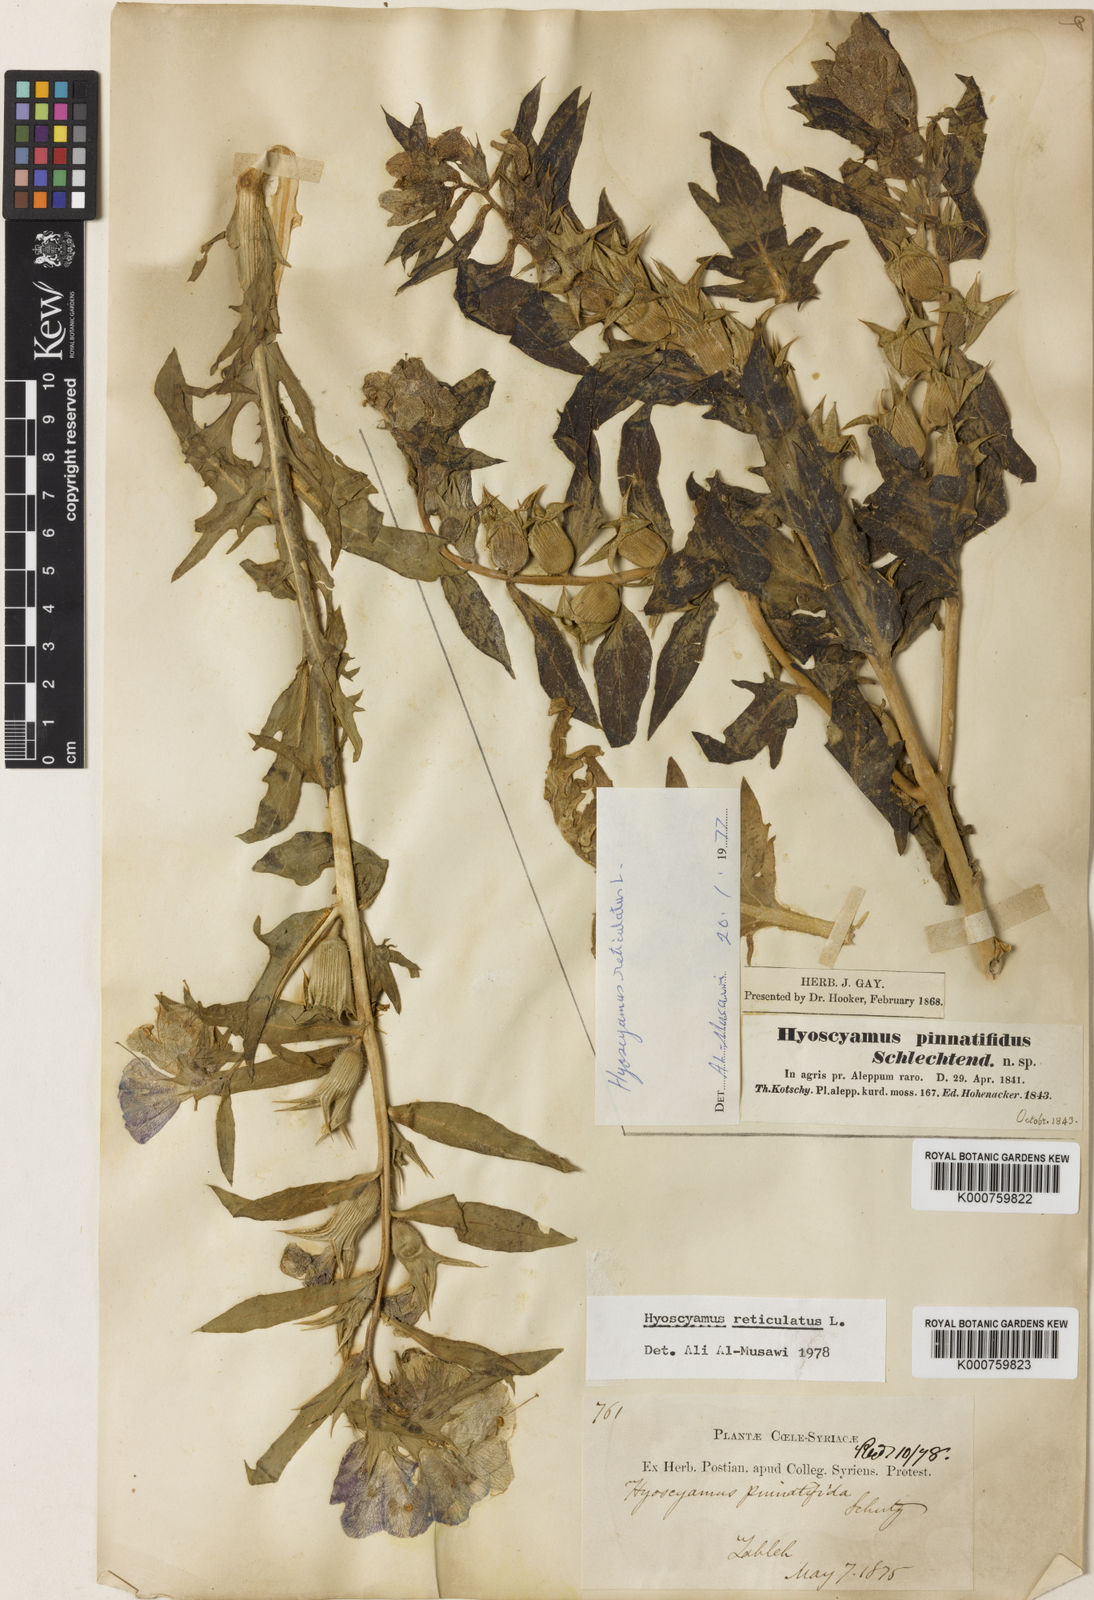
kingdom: Plantae
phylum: Tracheophyta
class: Magnoliopsida
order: Solanales
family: Solanaceae
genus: Hyoscyamus
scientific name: Hyoscyamus reticulatus
